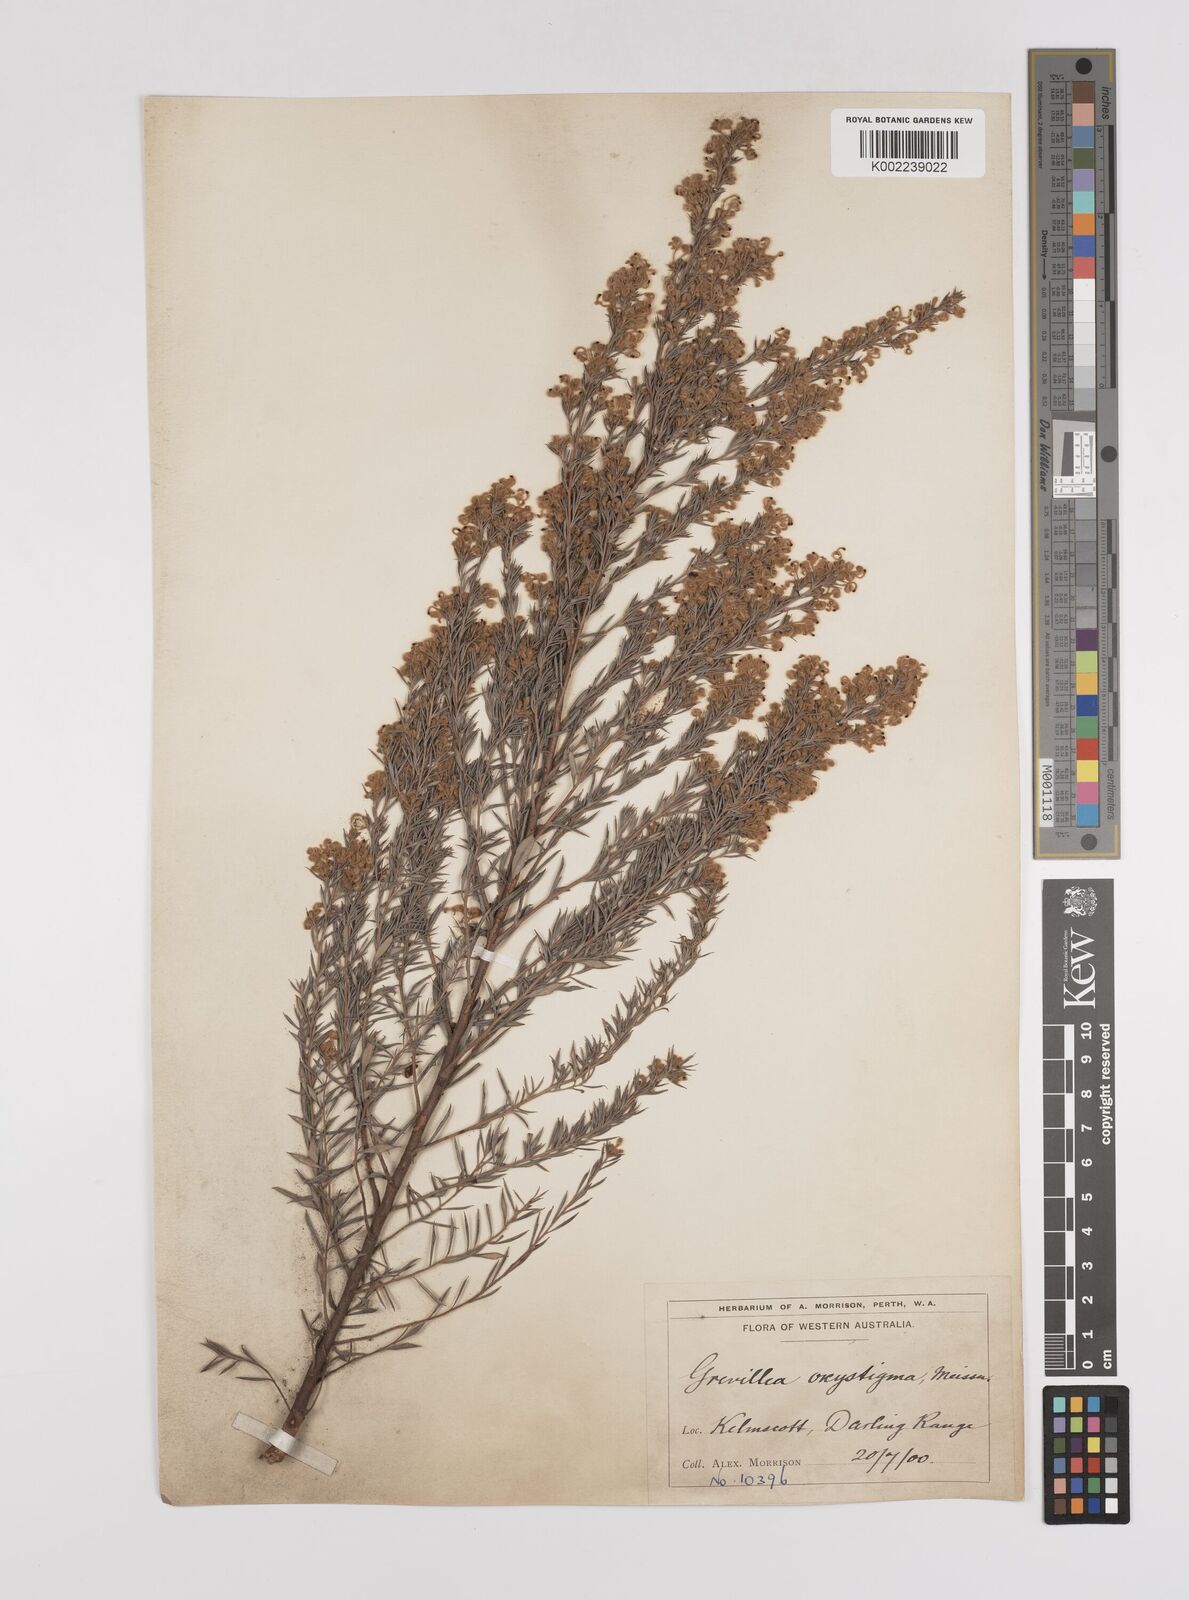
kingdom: Plantae
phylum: Tracheophyta
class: Magnoliopsida
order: Proteales
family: Proteaceae
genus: Grevillea
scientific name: Grevillea pilulifera
